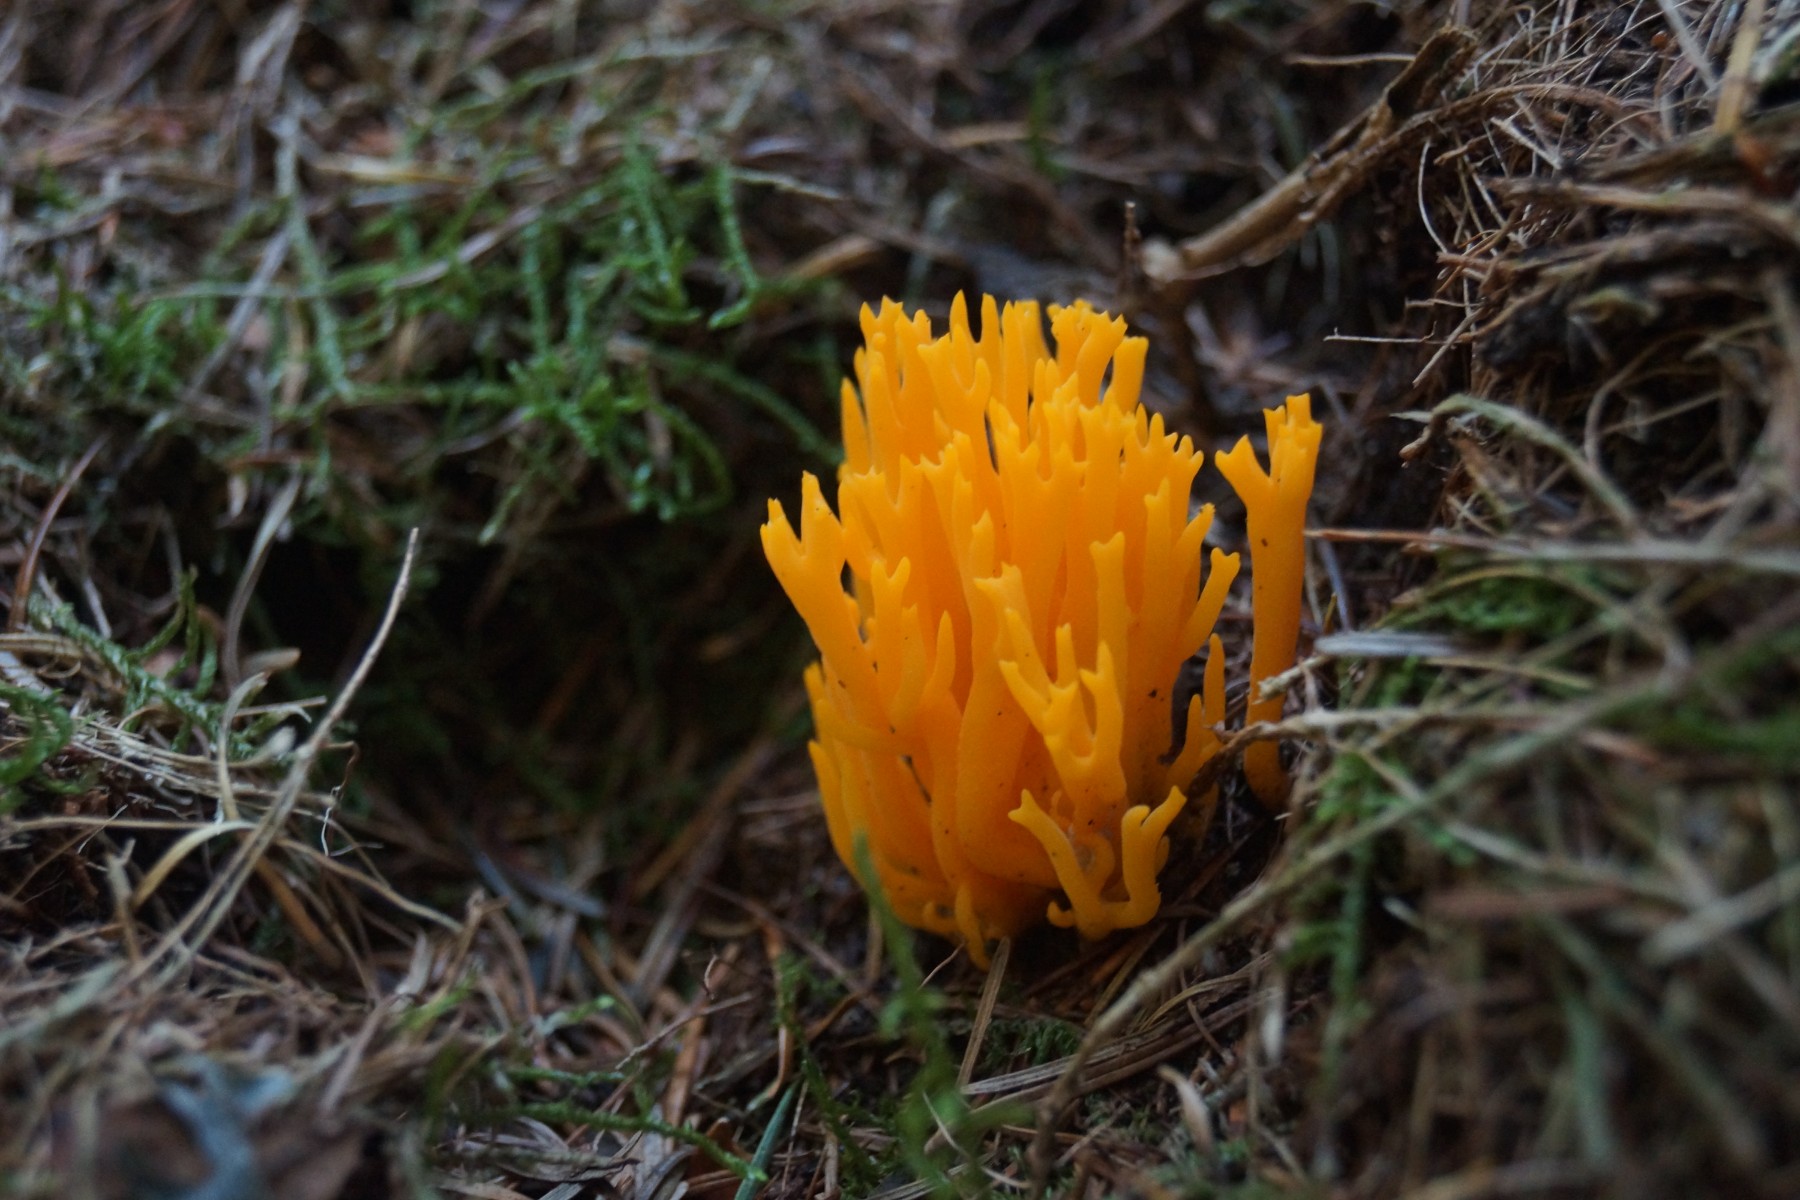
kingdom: Fungi
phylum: Basidiomycota
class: Dacrymycetes
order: Dacrymycetales
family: Dacrymycetaceae
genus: Calocera
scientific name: Calocera viscosa
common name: almindelig guldgaffel
